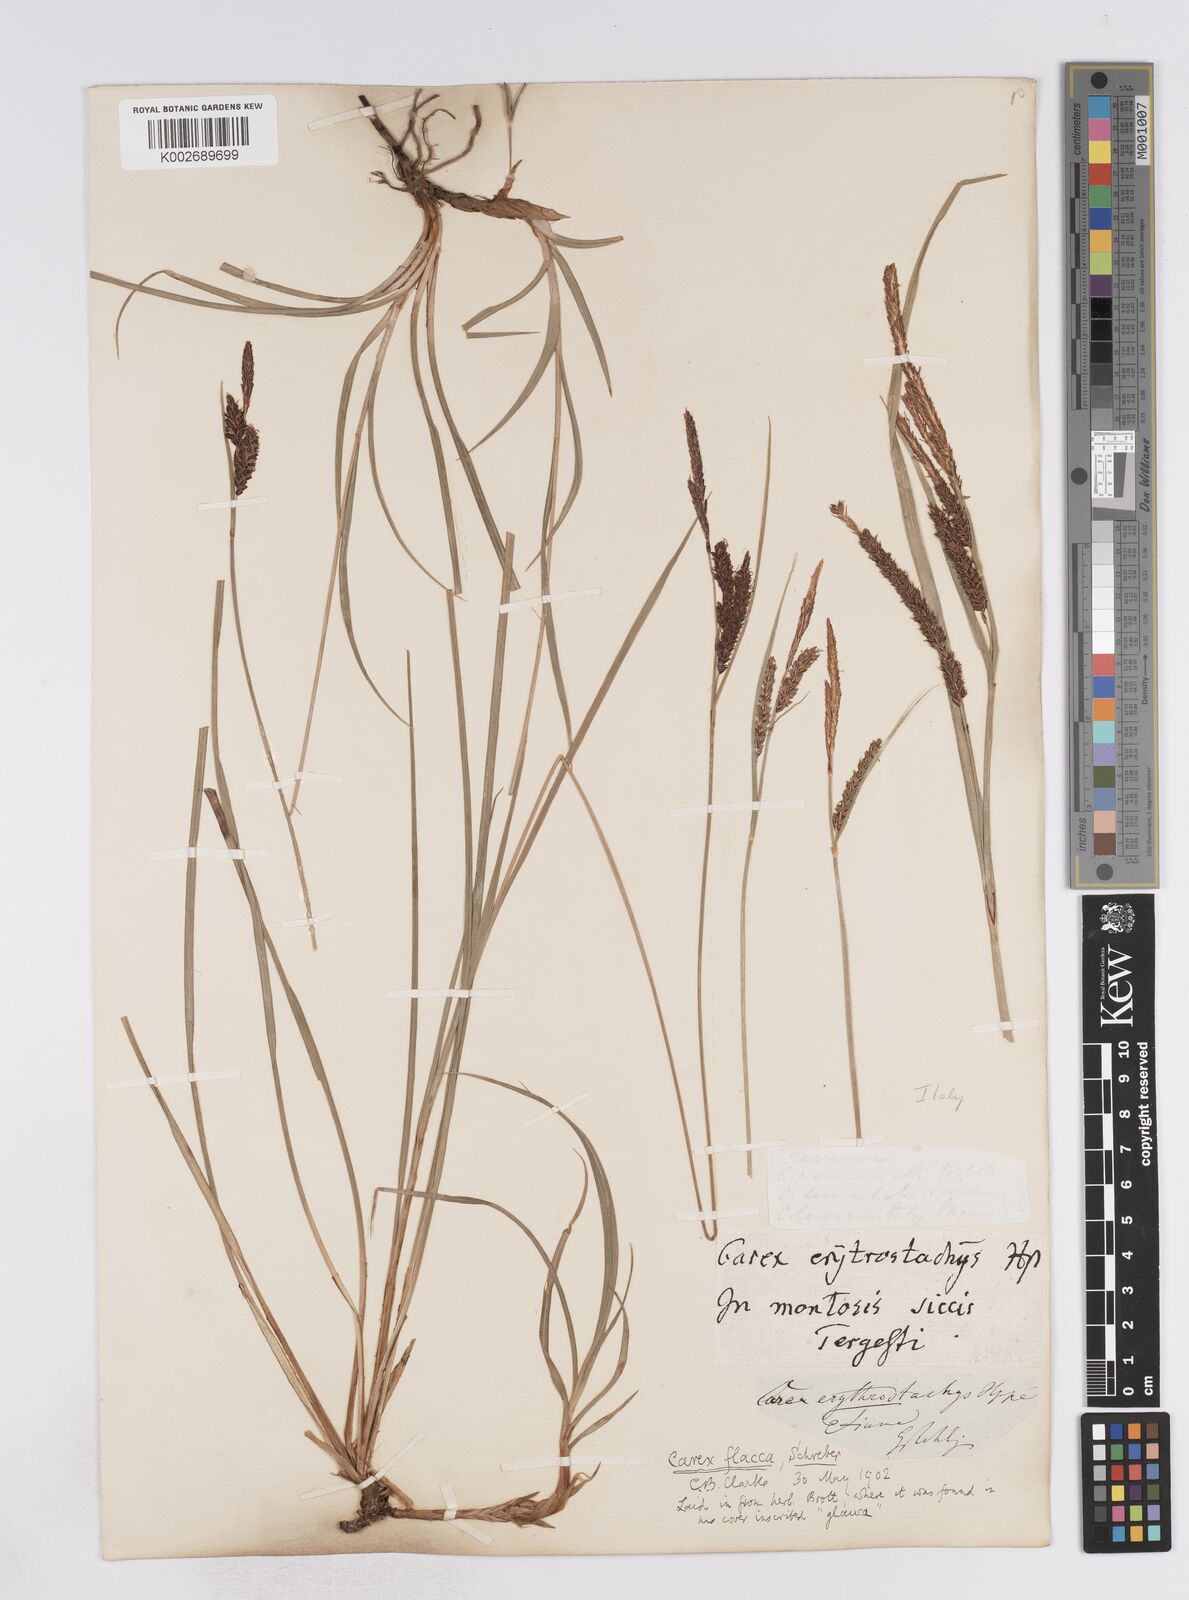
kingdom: Plantae
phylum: Tracheophyta
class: Liliopsida
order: Poales
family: Cyperaceae
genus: Carex
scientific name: Carex flacca
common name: Glaucous sedge
